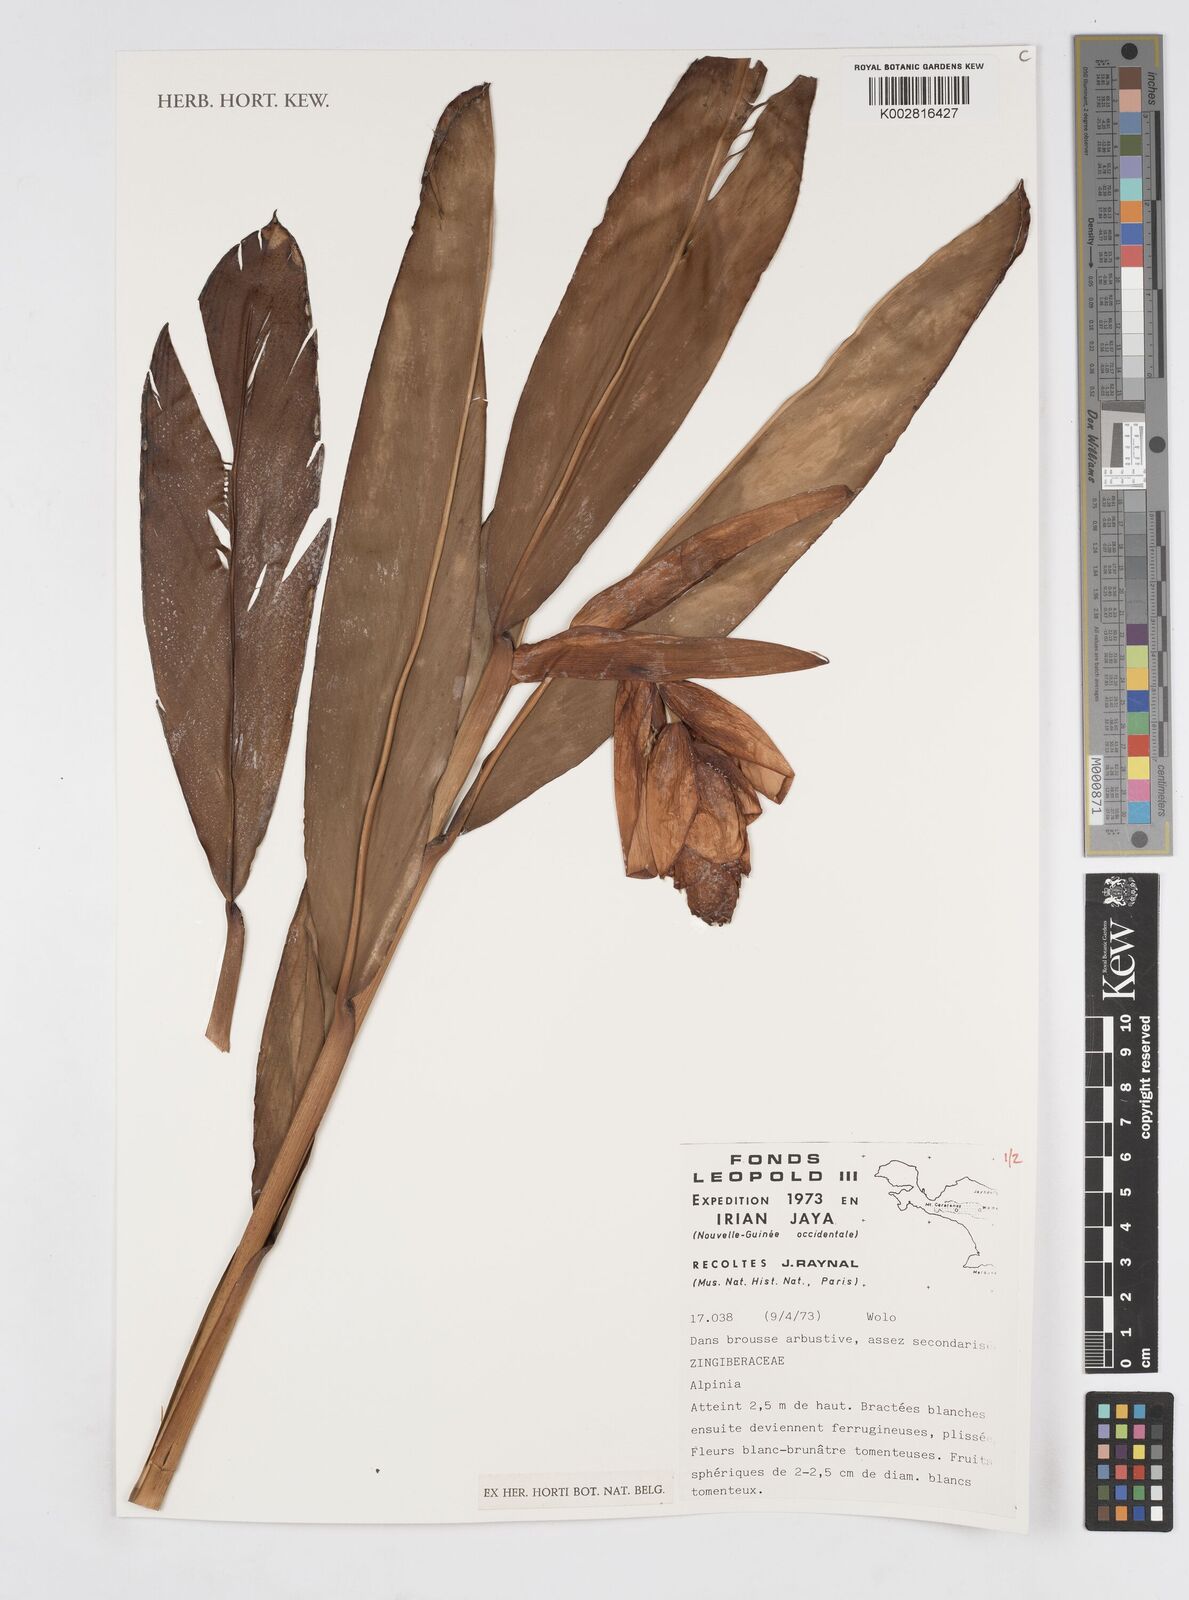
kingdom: Plantae
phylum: Tracheophyta
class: Liliopsida
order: Zingiberales
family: Zingiberaceae
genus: Alpinia
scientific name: Alpinia
